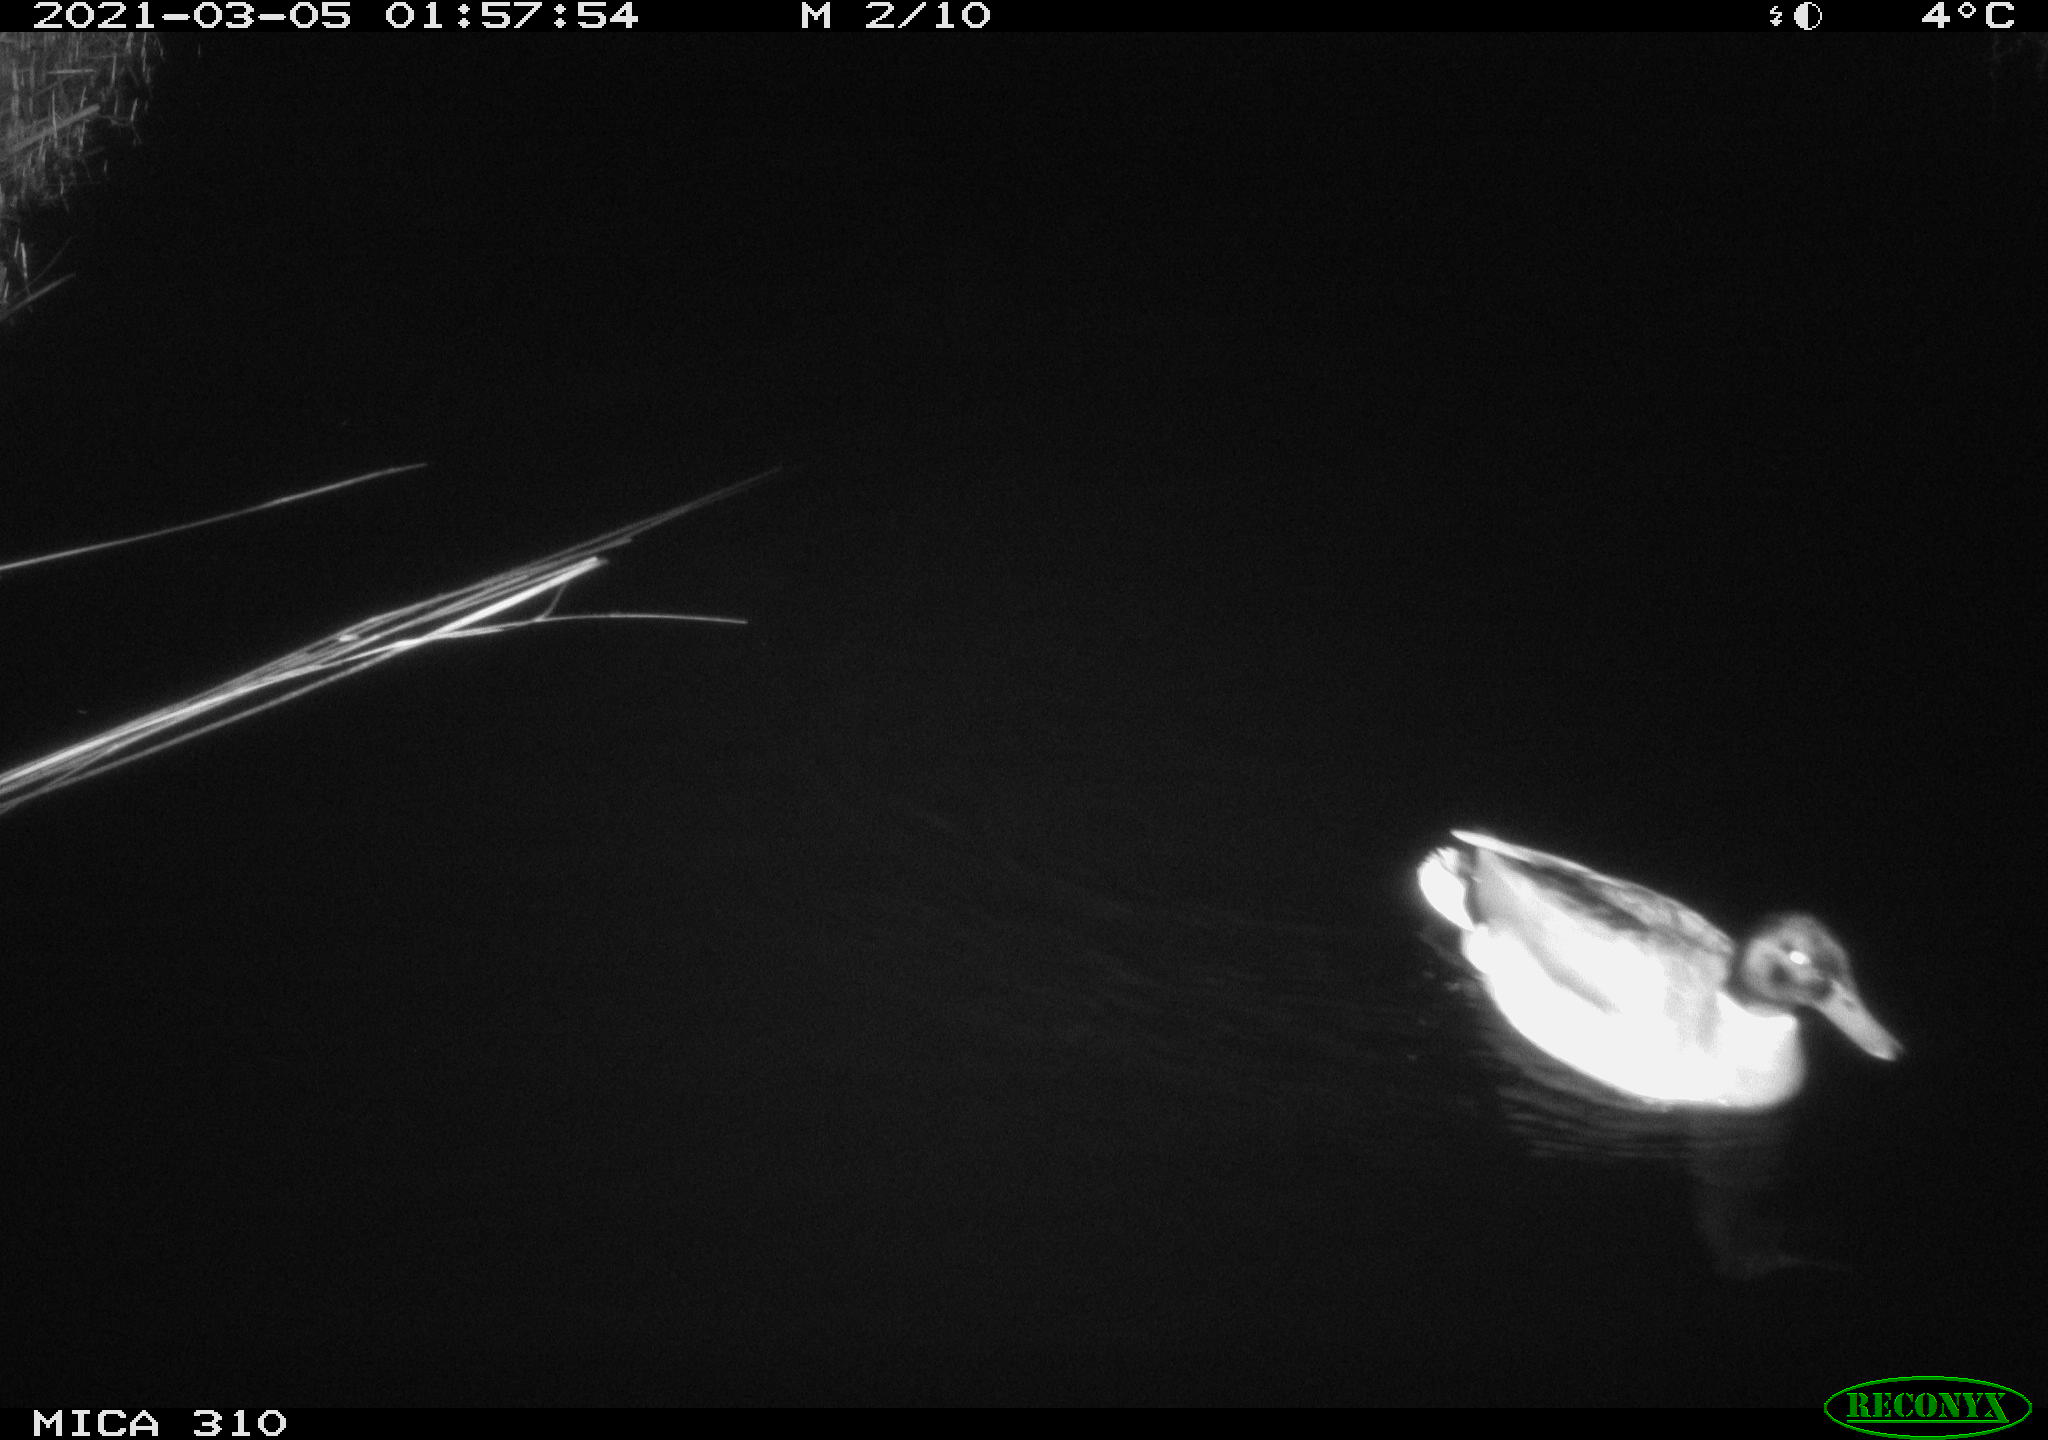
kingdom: Animalia
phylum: Chordata
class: Aves
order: Anseriformes
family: Anatidae
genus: Anas
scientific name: Anas platyrhynchos
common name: Mallard
